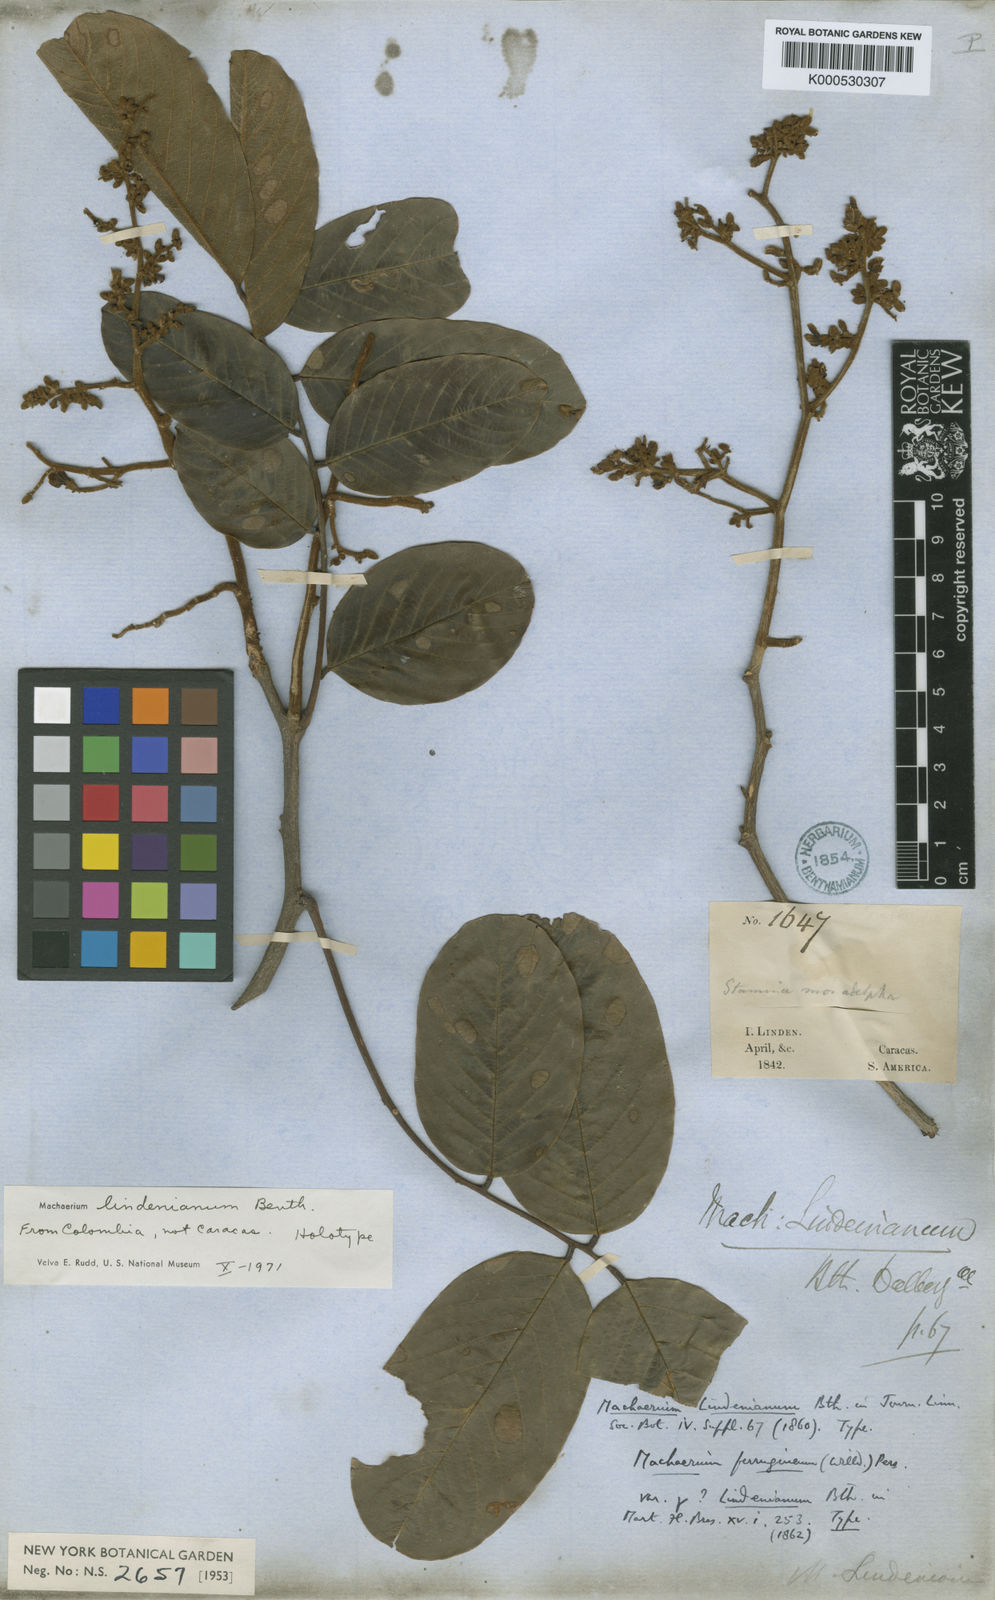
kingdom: Plantae
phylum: Tracheophyta
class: Magnoliopsida
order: Fabales
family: Fabaceae
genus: Machaerium
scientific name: Machaerium lindenianum
